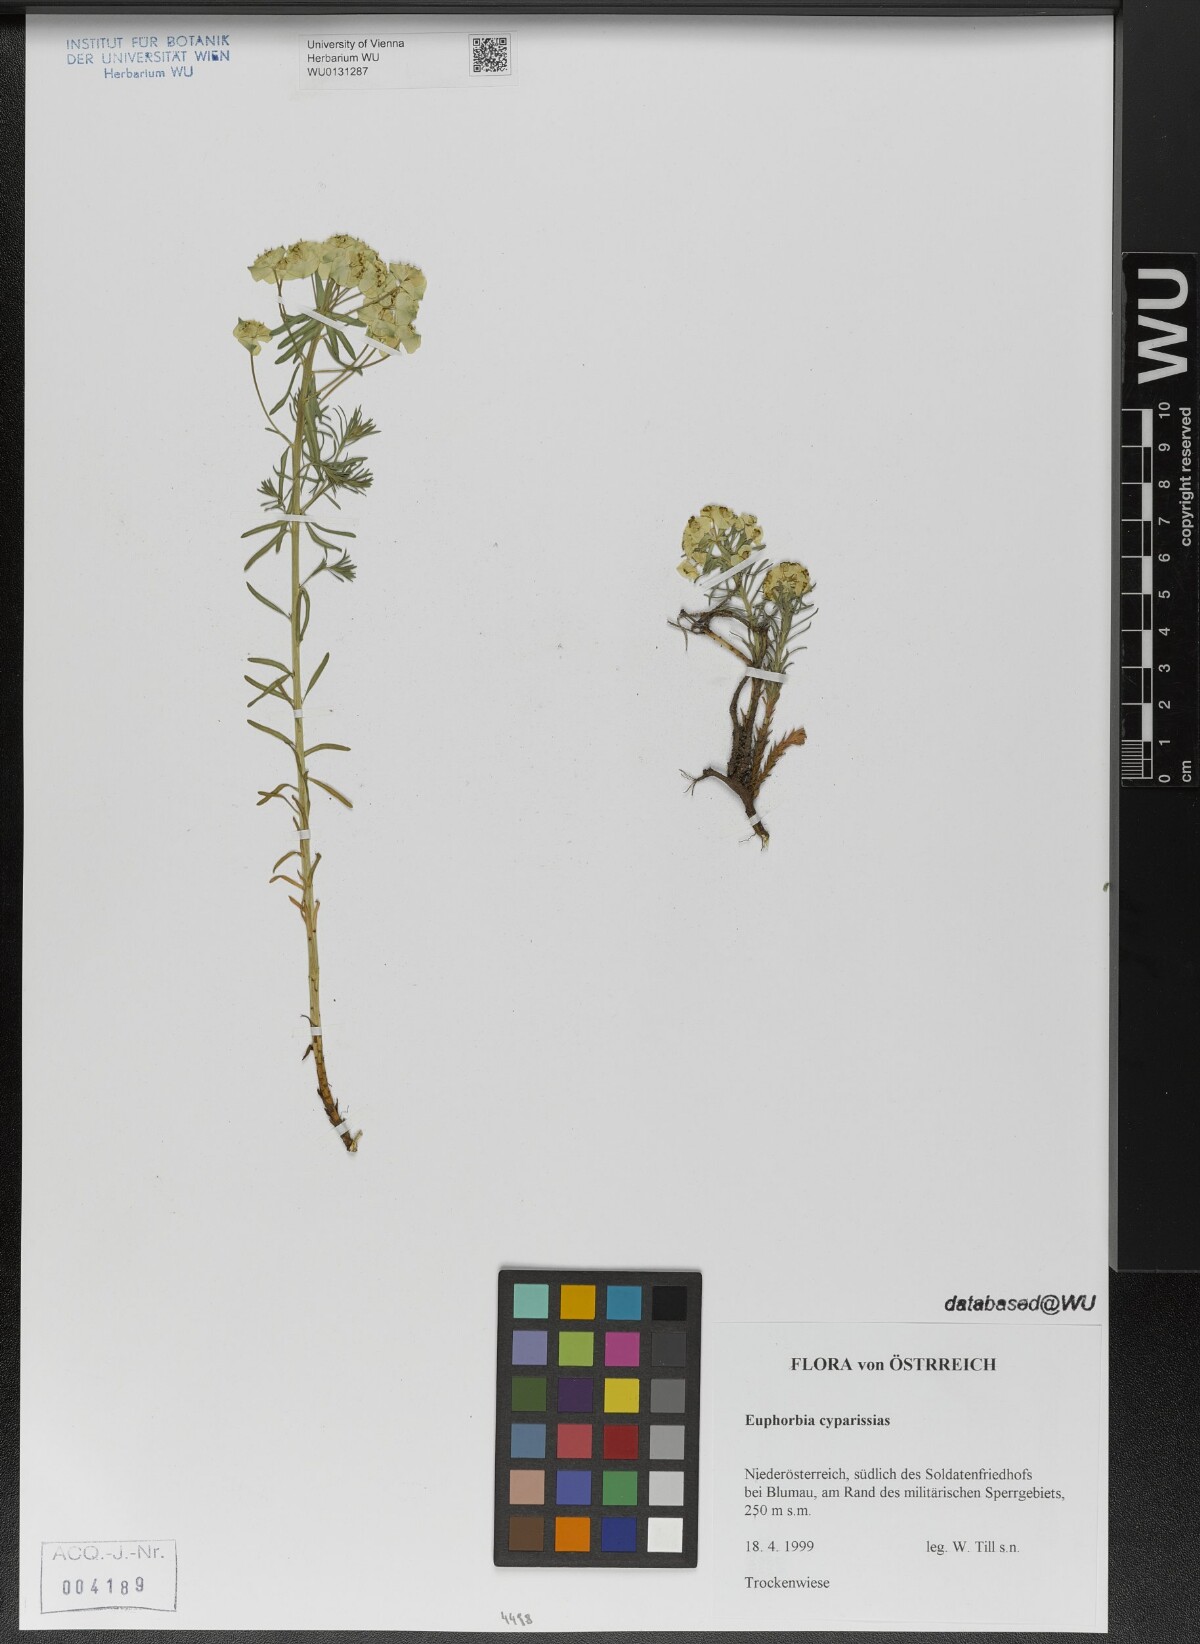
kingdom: Plantae
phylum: Tracheophyta
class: Magnoliopsida
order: Malpighiales
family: Euphorbiaceae
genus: Euphorbia
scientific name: Euphorbia cyparissias
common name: Cypress spurge
